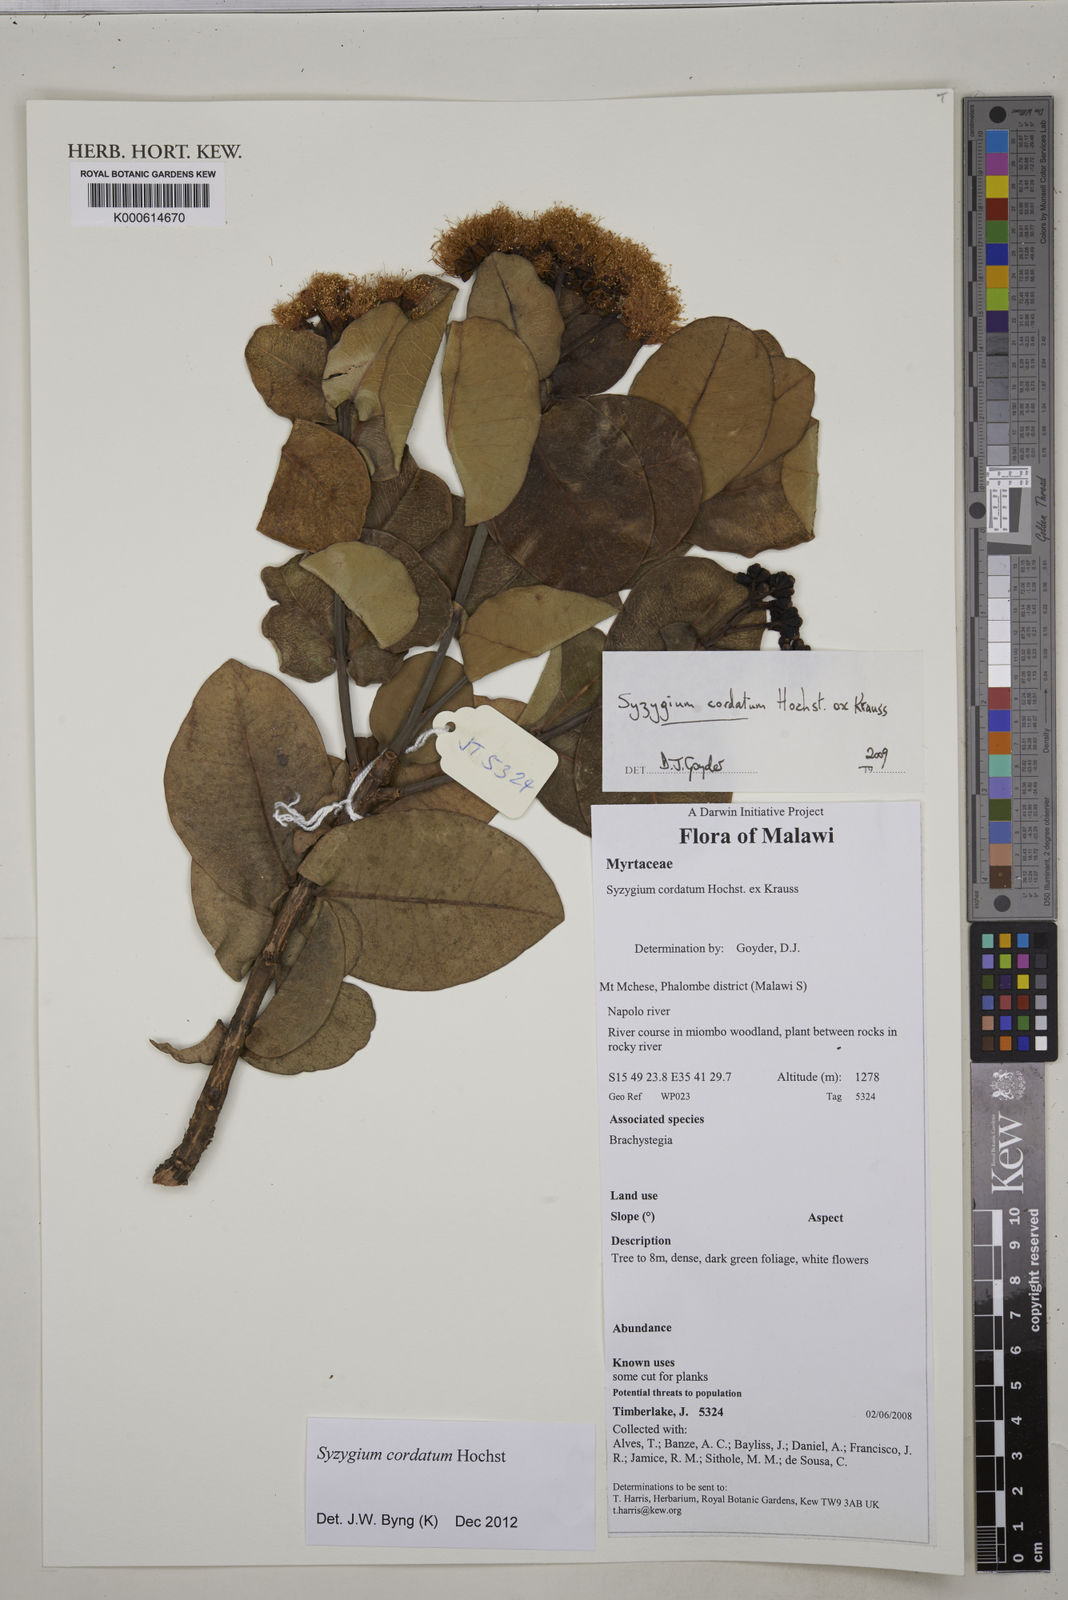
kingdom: Plantae
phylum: Tracheophyta
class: Magnoliopsida
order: Myrtales
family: Myrtaceae
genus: Syzygium
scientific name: Syzygium cordatum
